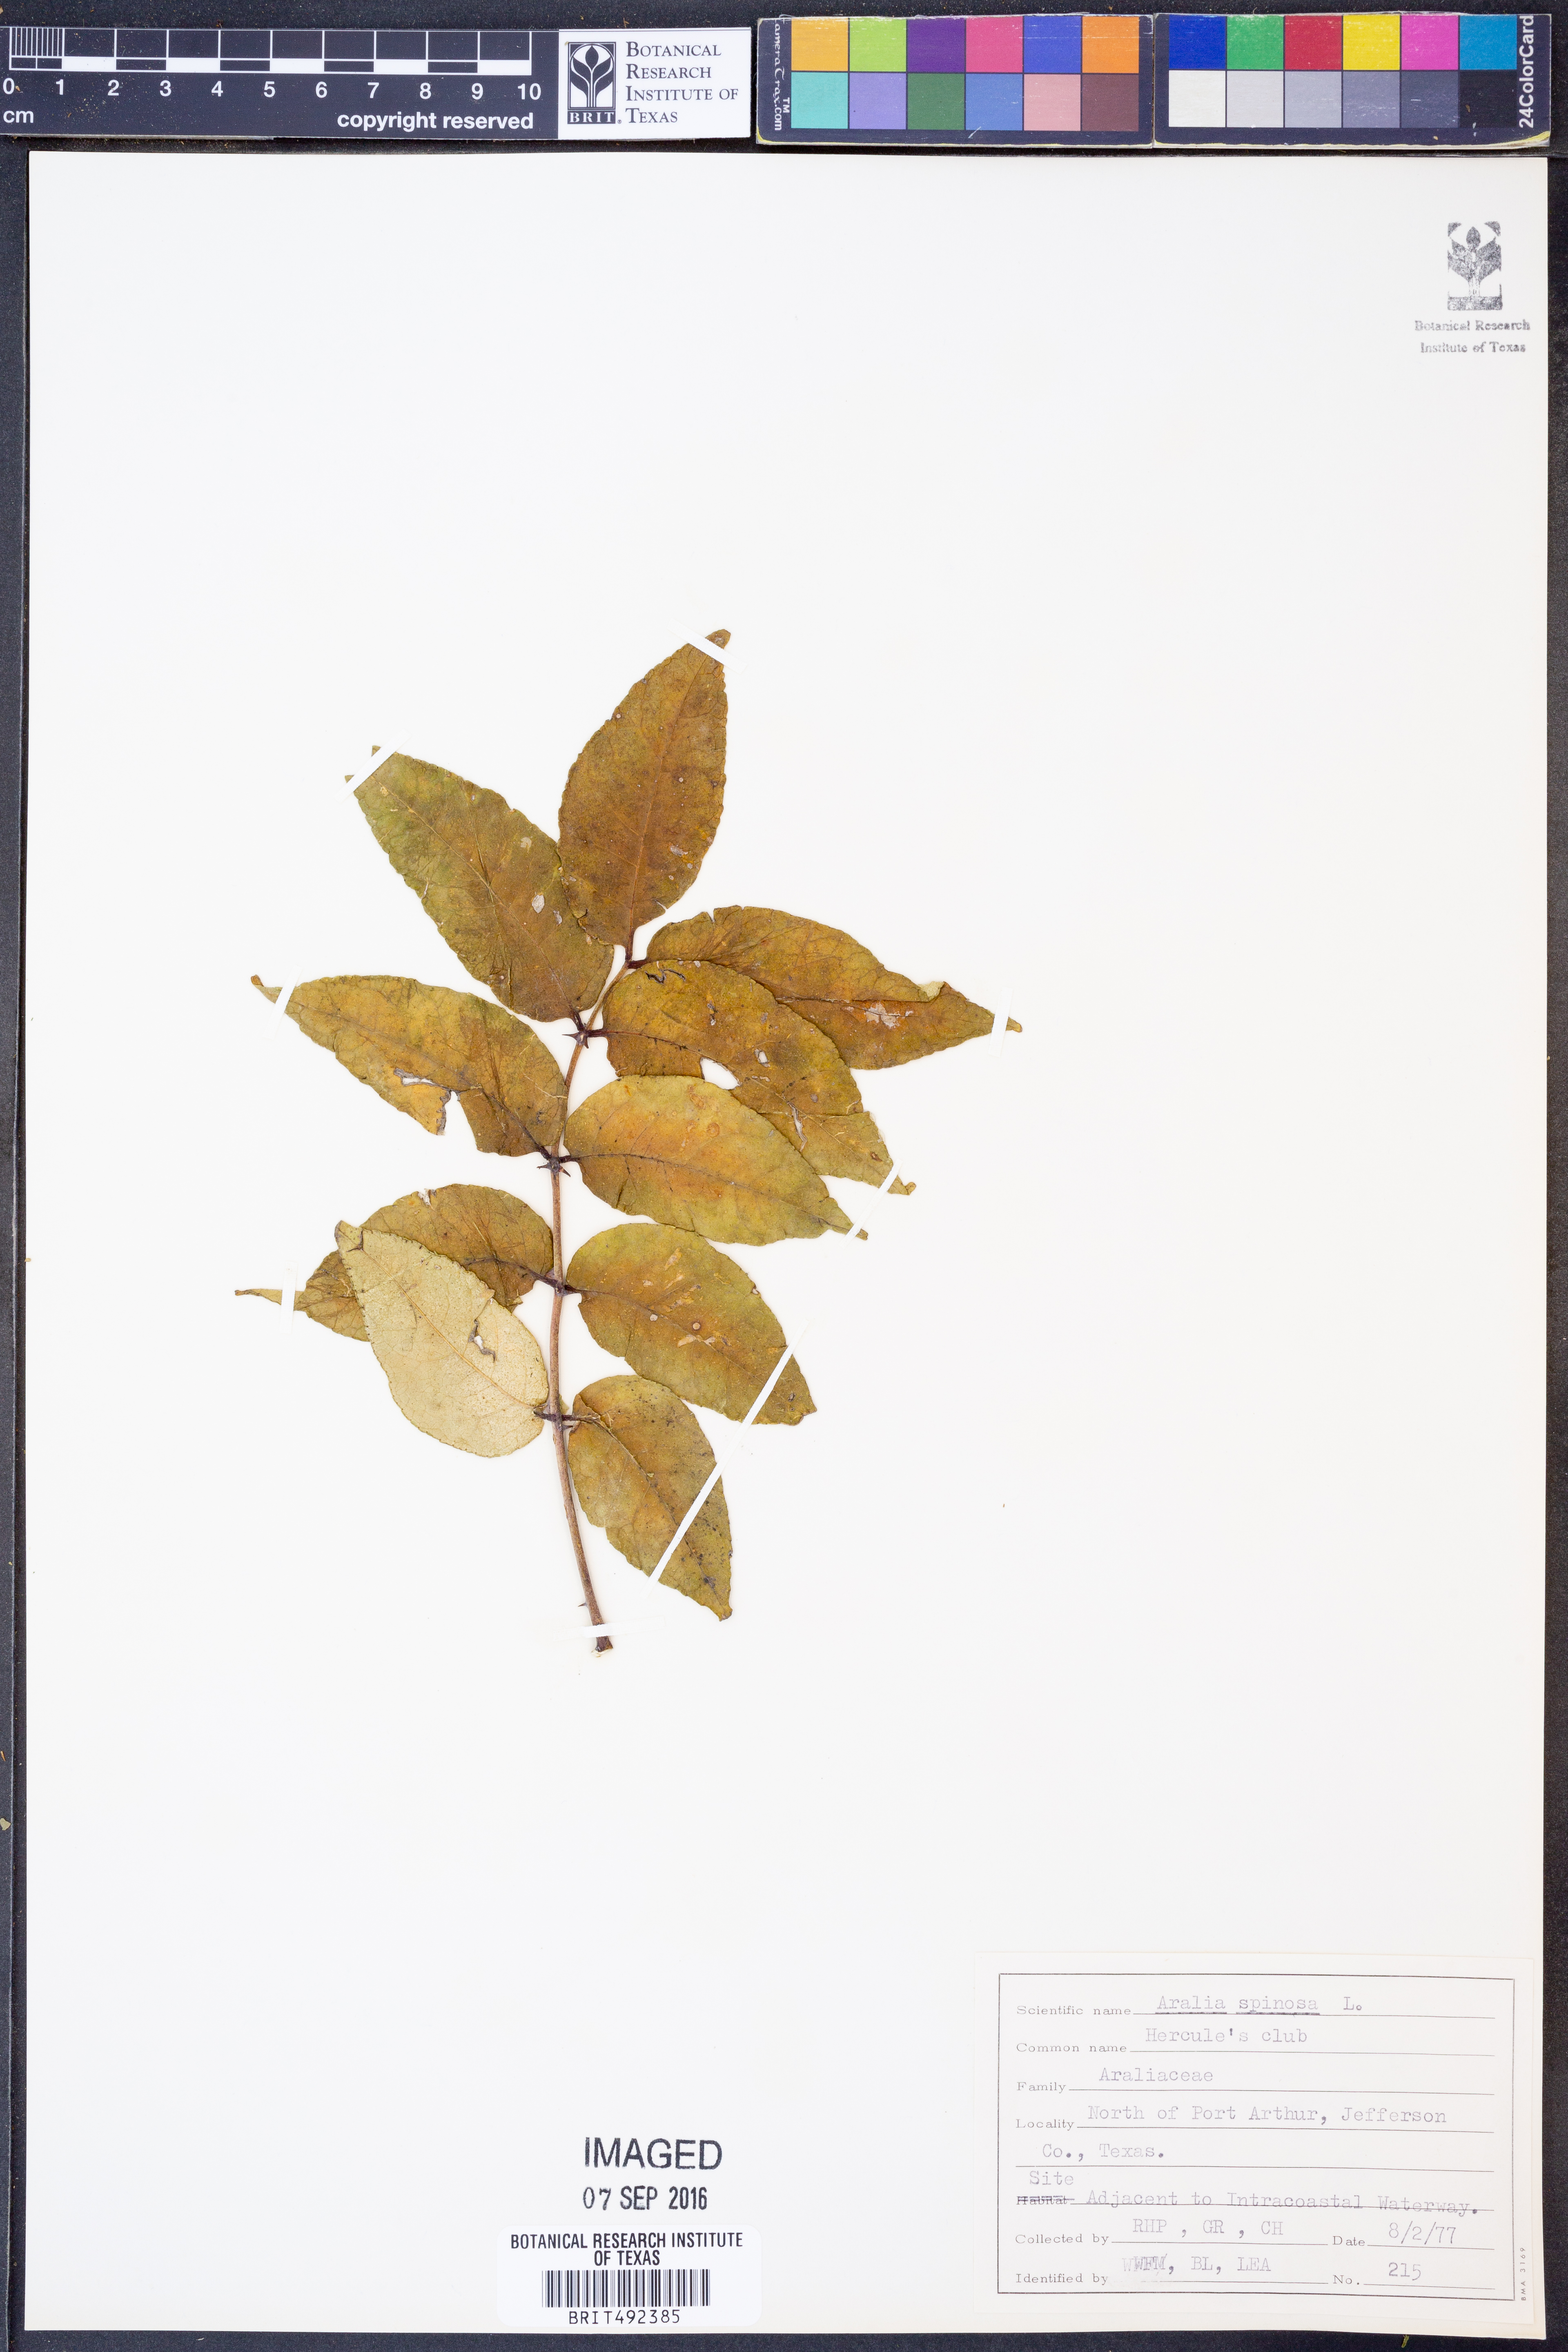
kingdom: Plantae
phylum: Tracheophyta
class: Magnoliopsida
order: Apiales
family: Araliaceae
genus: Aralia
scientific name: Aralia spinosa
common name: Hercules'-club
